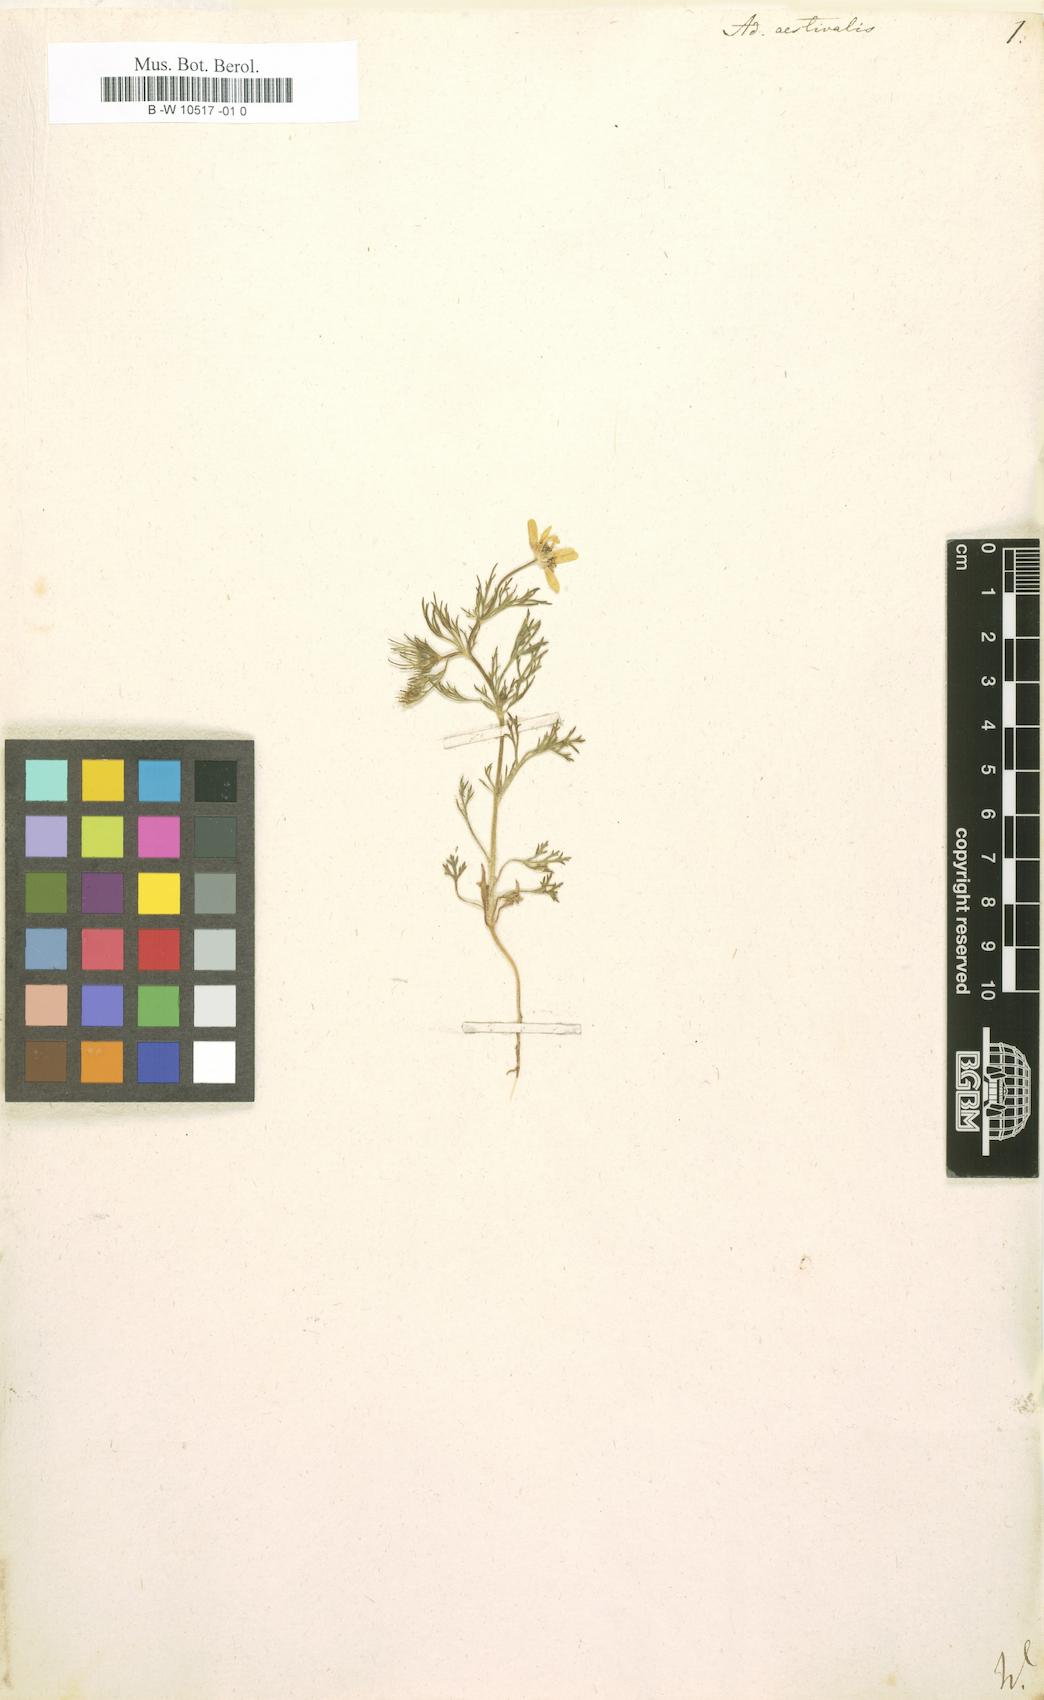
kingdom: Plantae
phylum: Tracheophyta
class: Magnoliopsida
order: Ranunculales
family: Ranunculaceae
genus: Adonis
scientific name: Adonis aestivalis
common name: Summer pheasant's-eye
